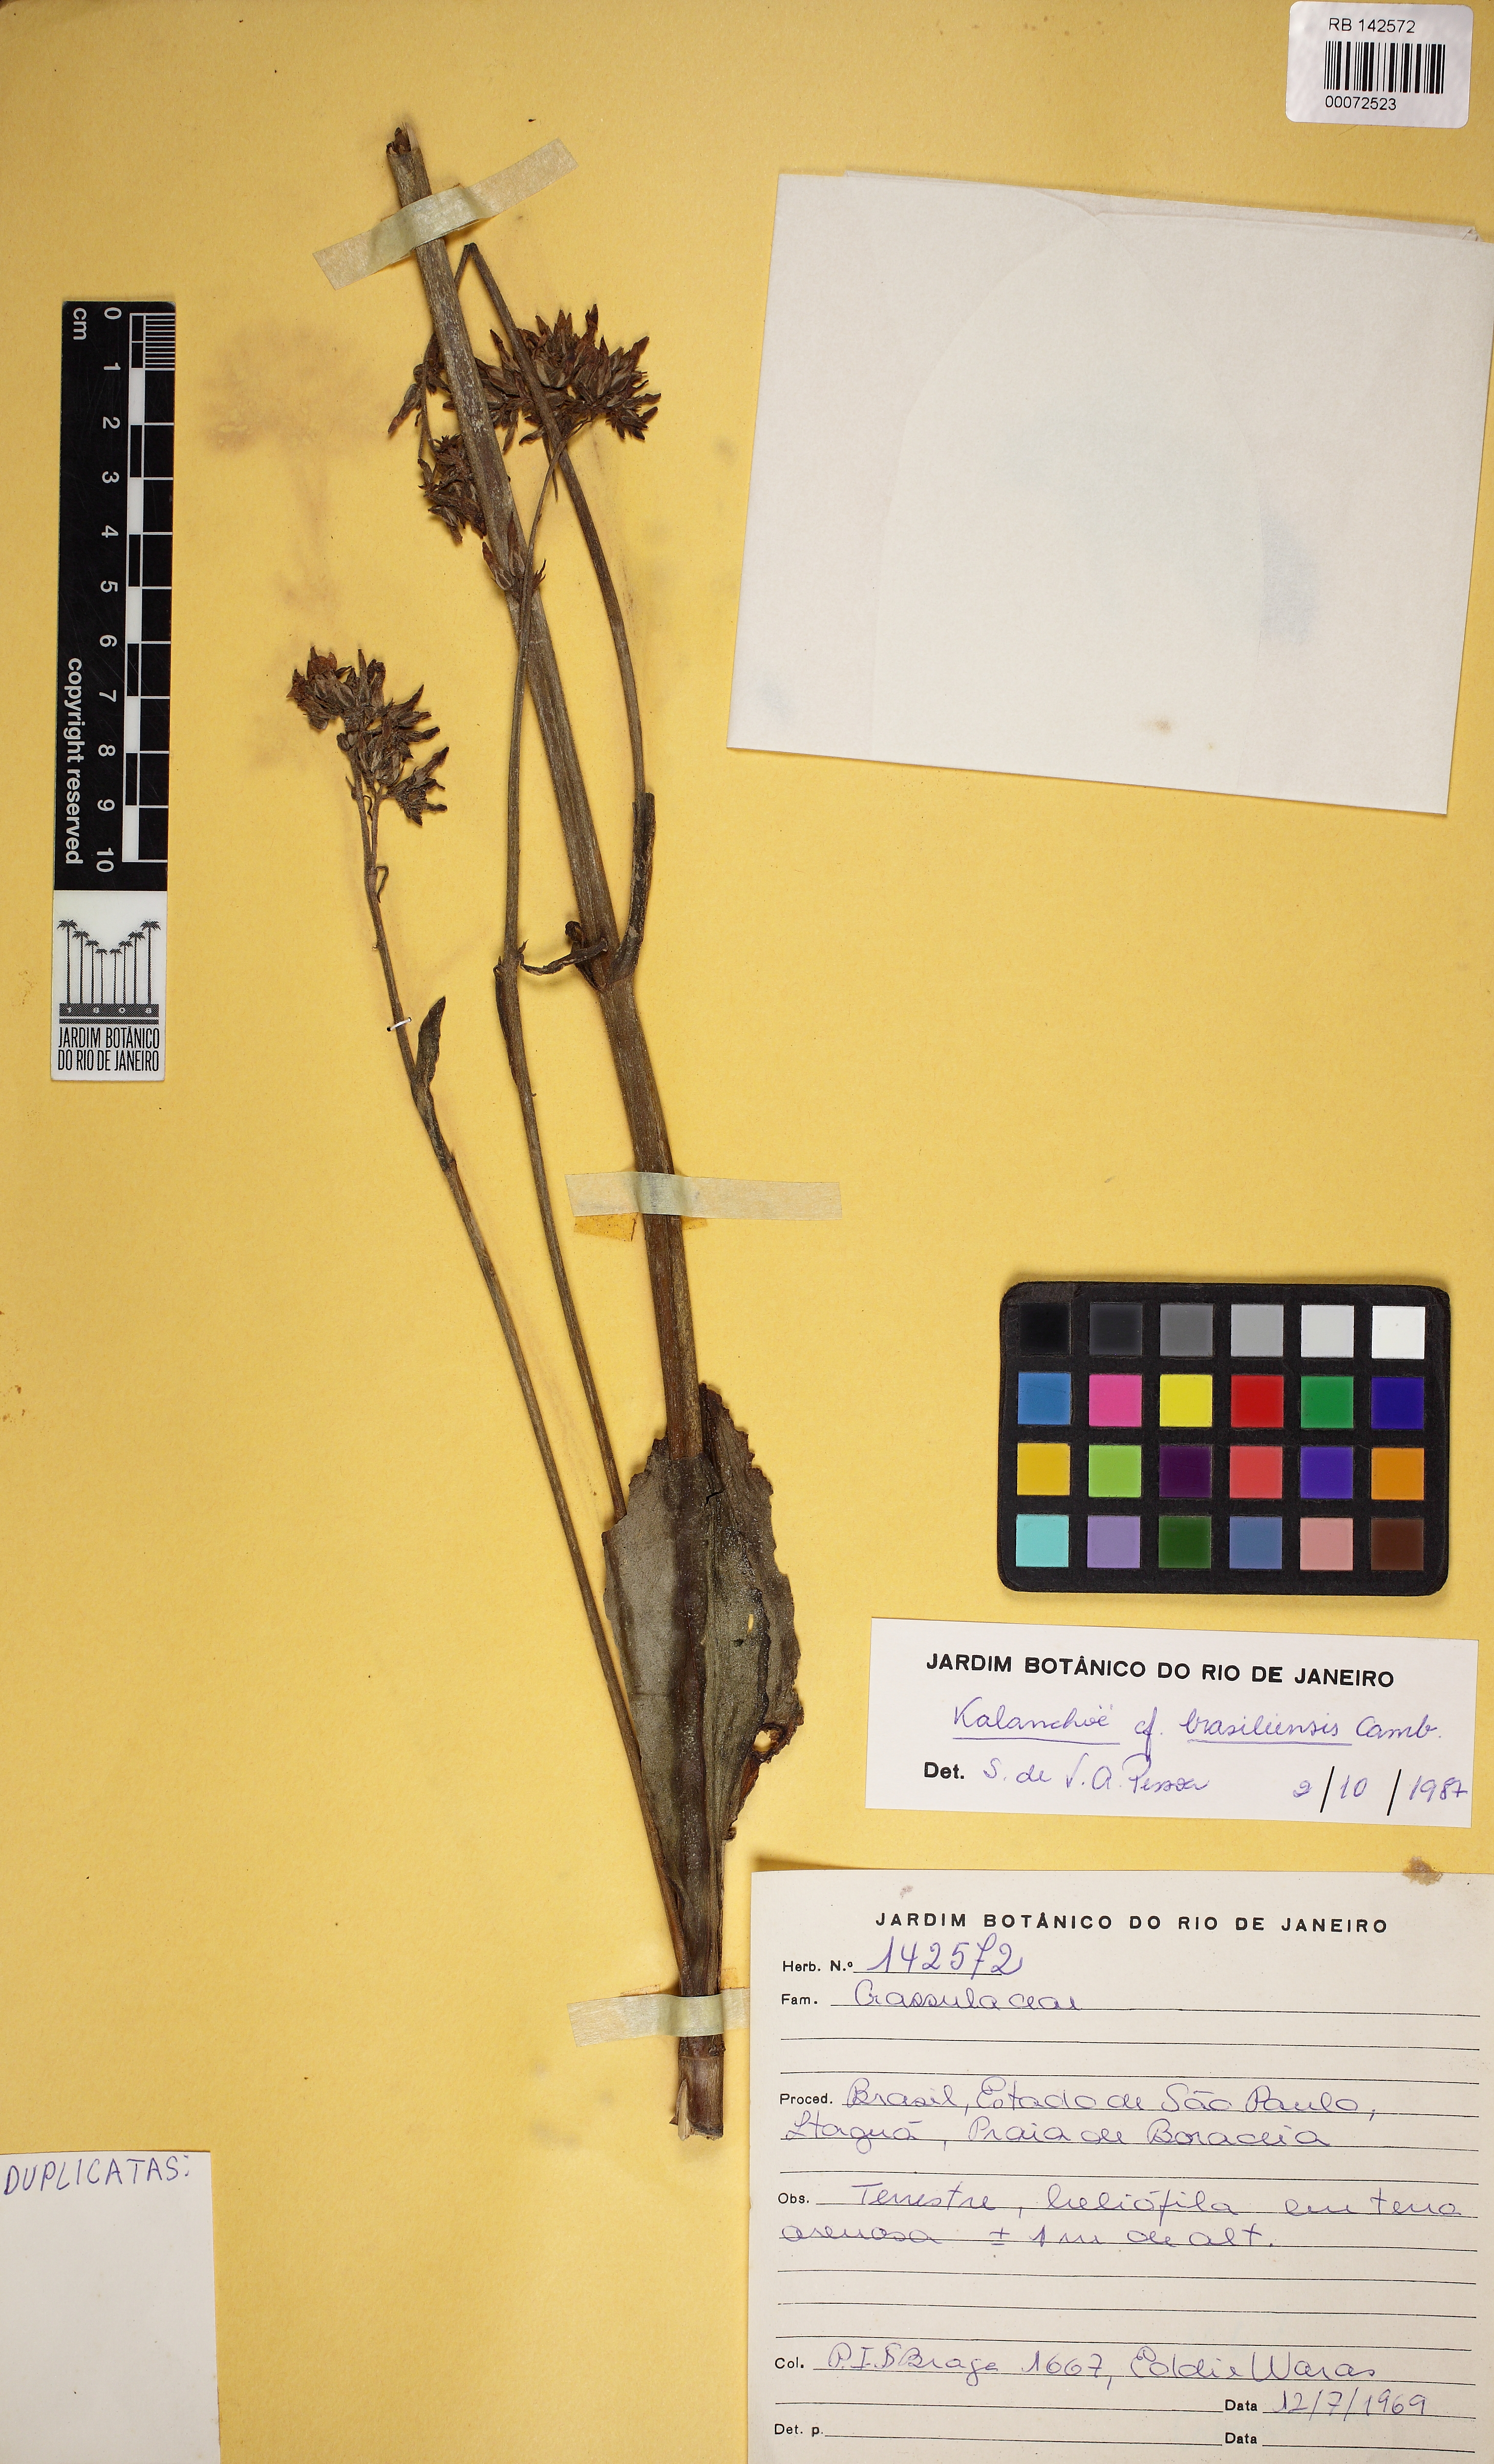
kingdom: Plantae
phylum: Tracheophyta
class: Magnoliopsida
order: Saxifragales
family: Crassulaceae
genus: Kalanchoe
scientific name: Kalanchoe crenata
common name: Neverdie
